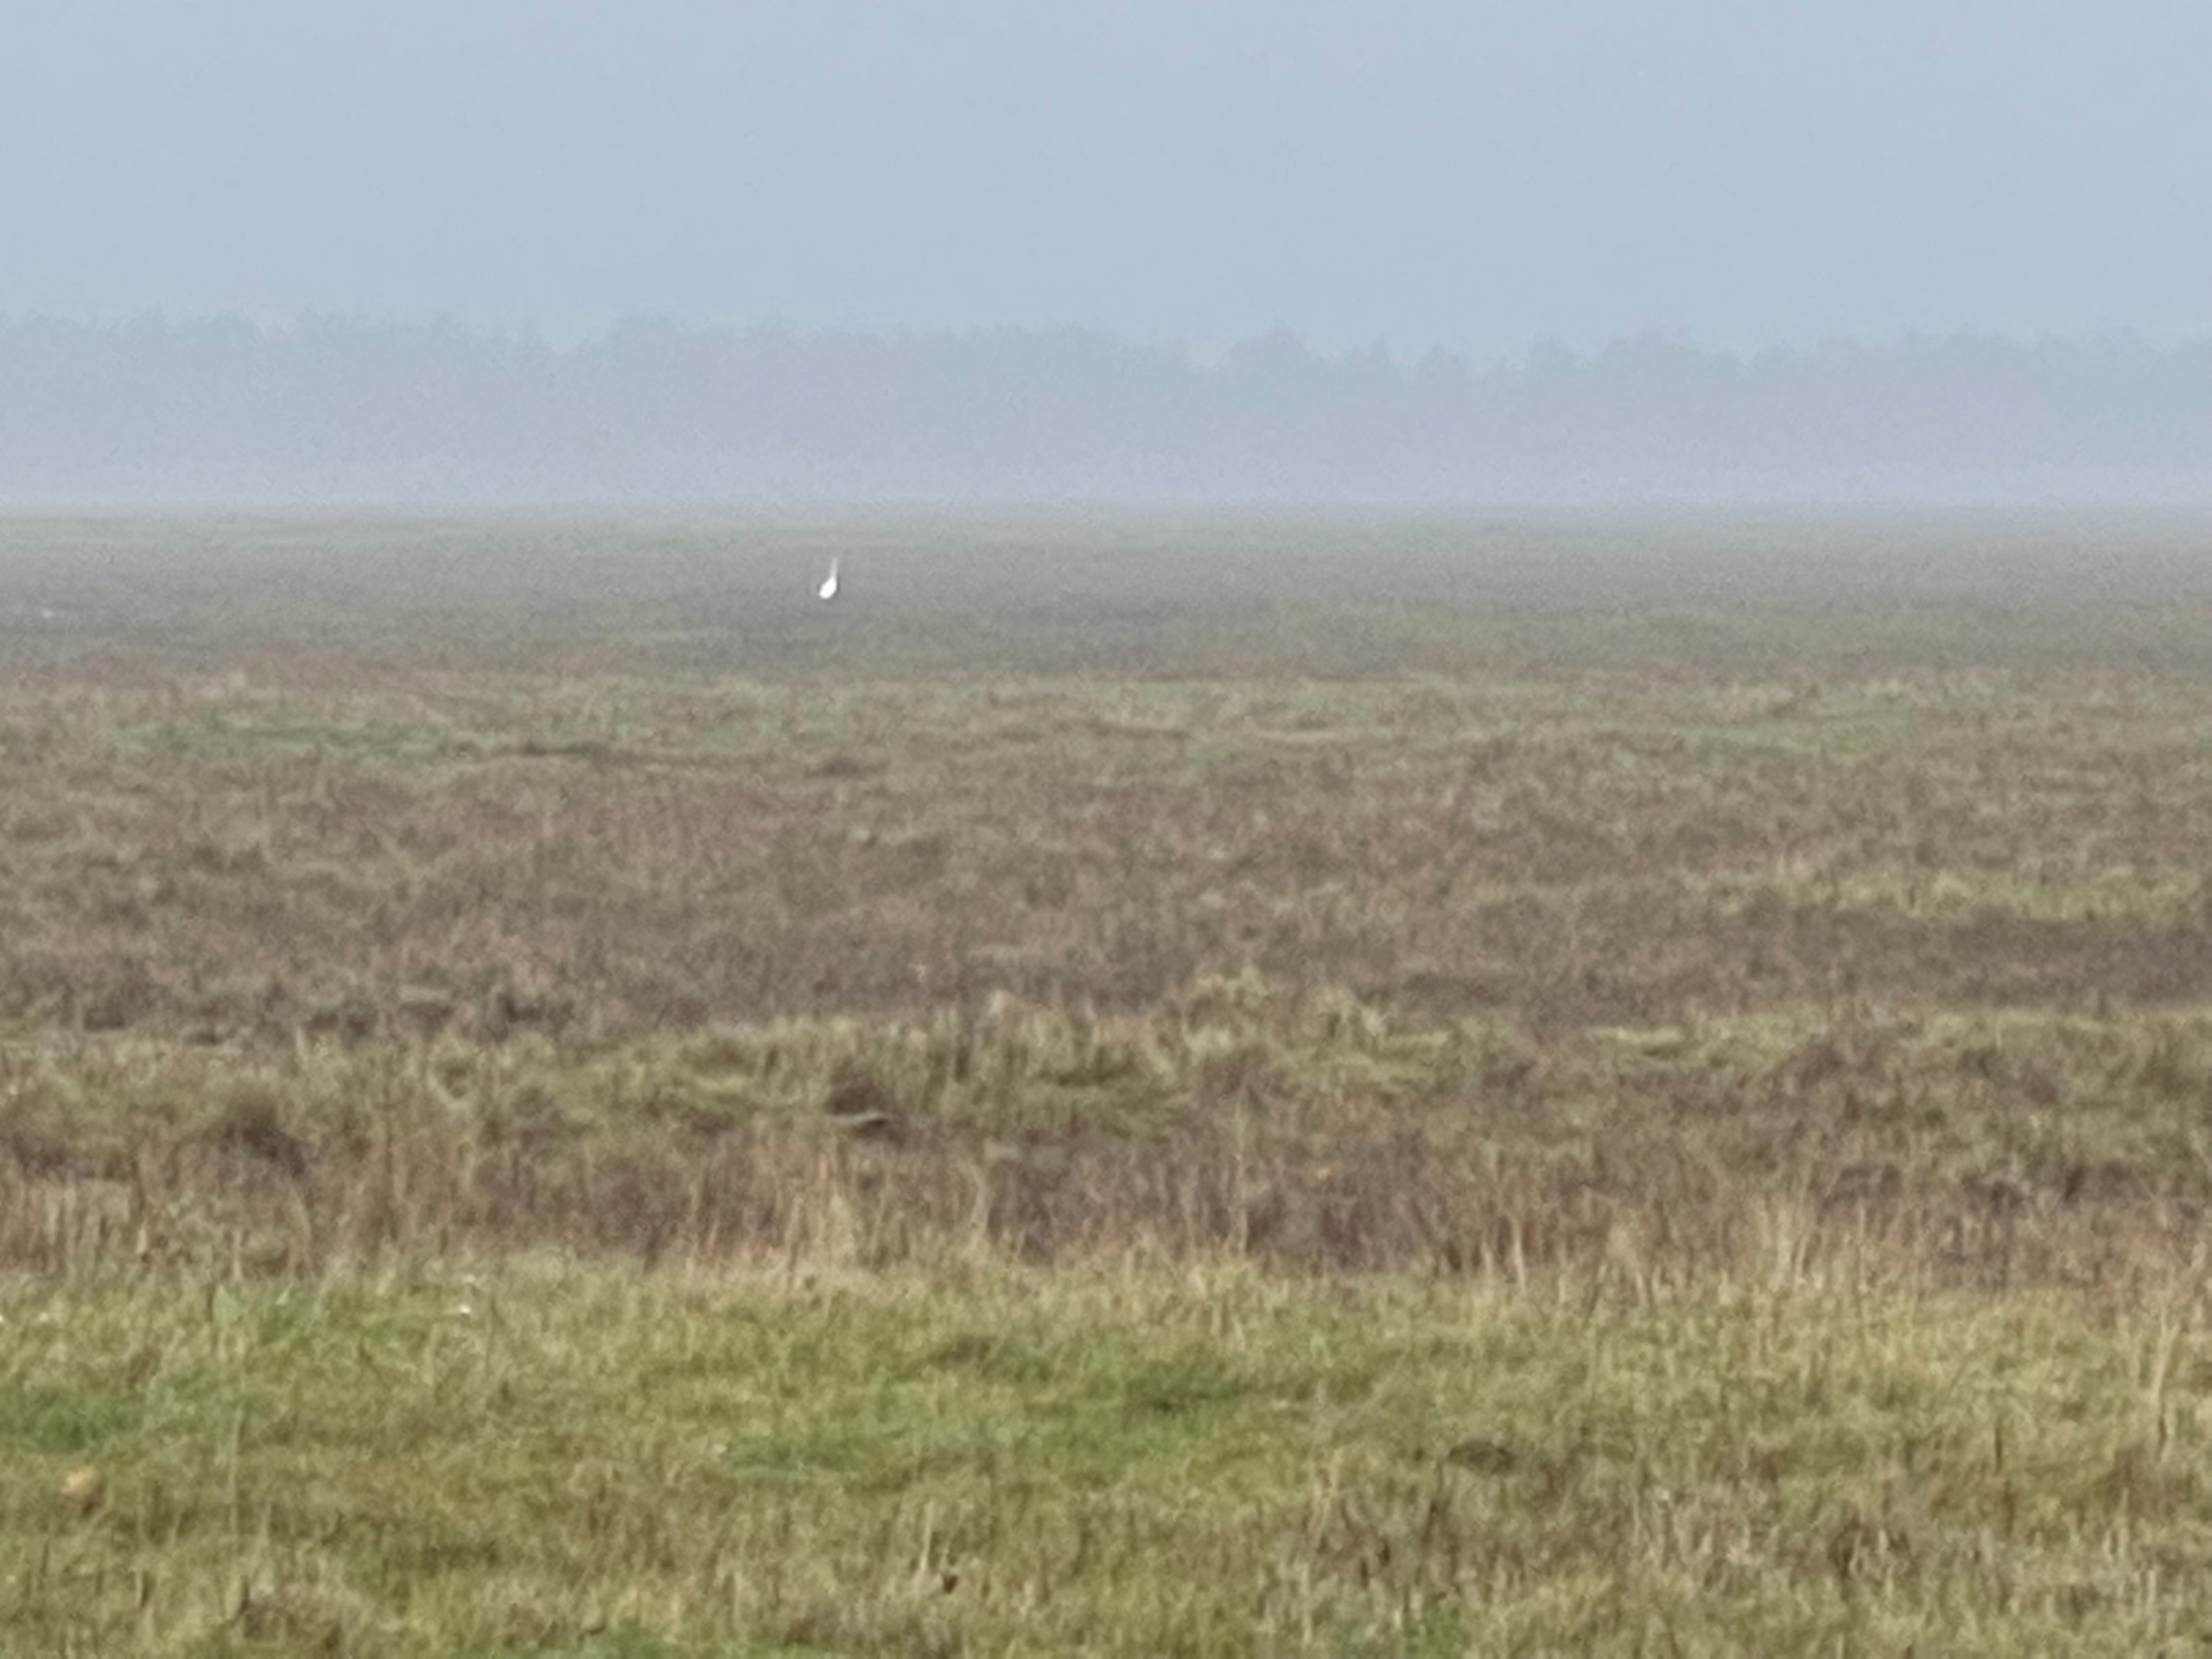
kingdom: Animalia
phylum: Chordata
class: Aves
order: Pelecaniformes
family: Ardeidae
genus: Ardea
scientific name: Ardea alba
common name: Sølvhejre
